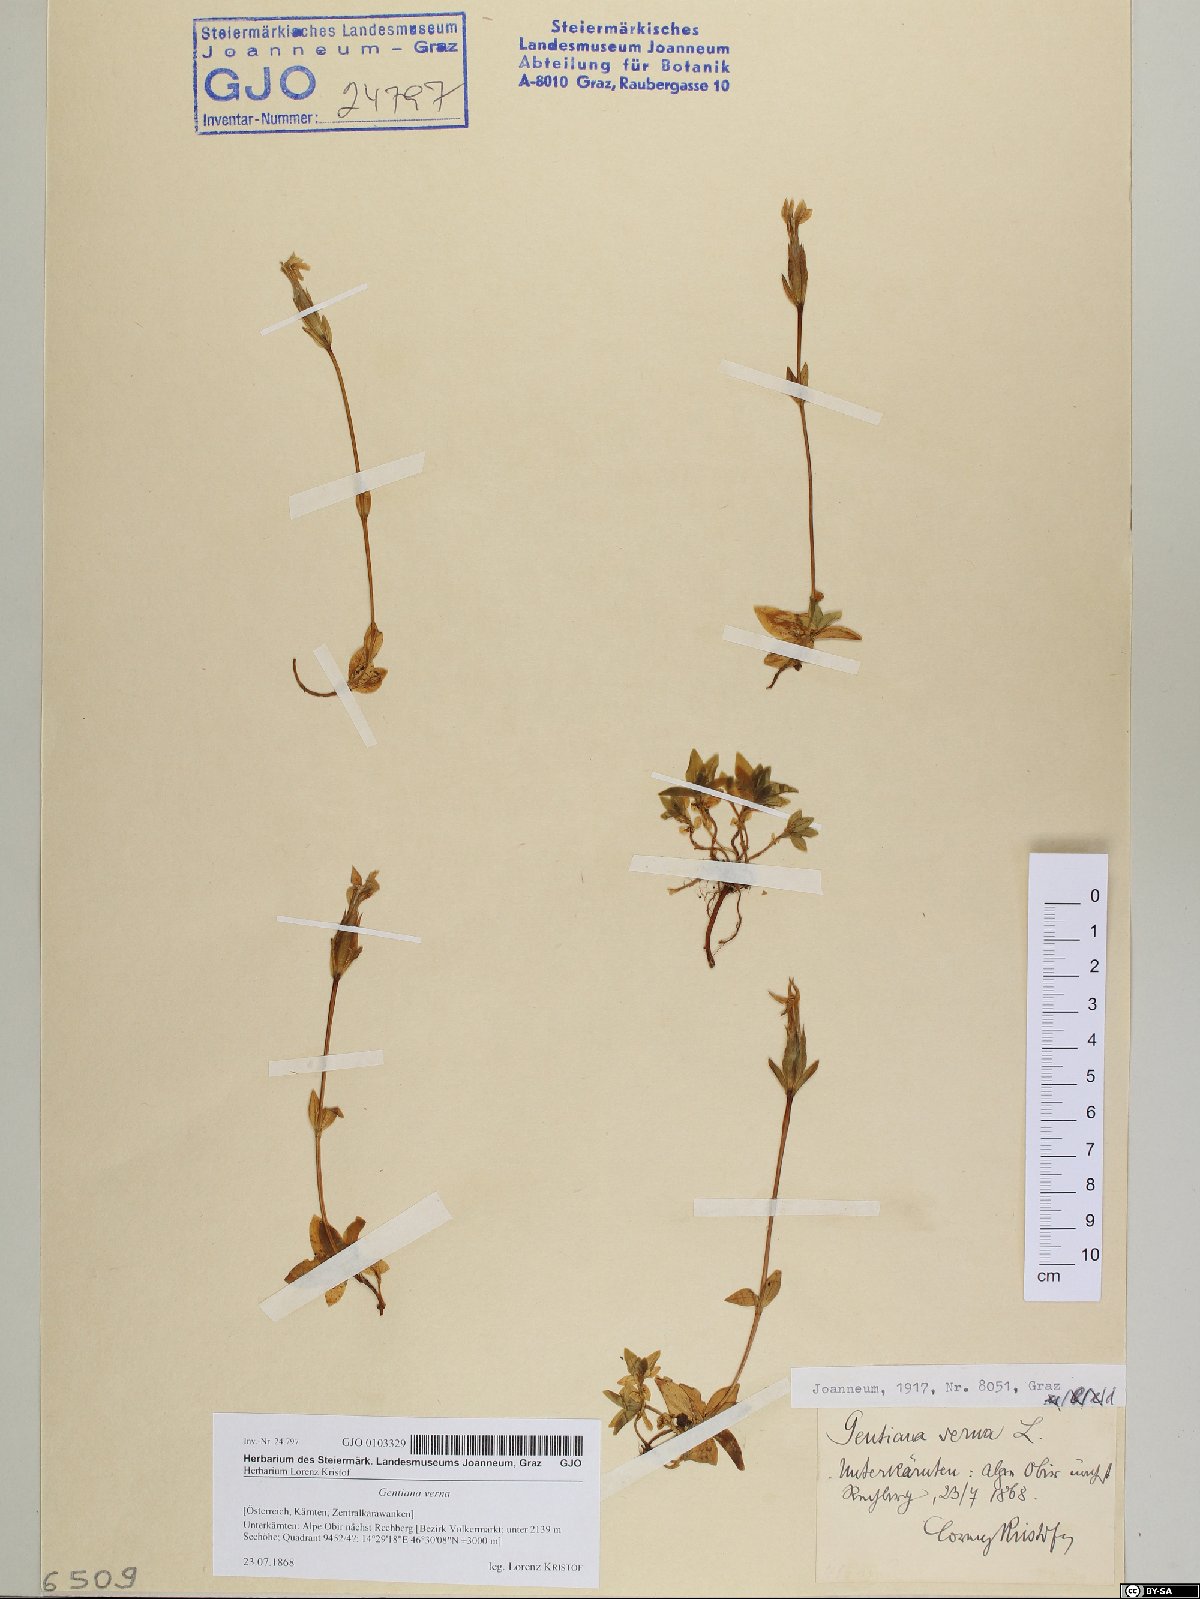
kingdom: Plantae
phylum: Tracheophyta
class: Magnoliopsida
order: Gentianales
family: Gentianaceae
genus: Gentiana
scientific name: Gentiana verna
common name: Spring gentian
